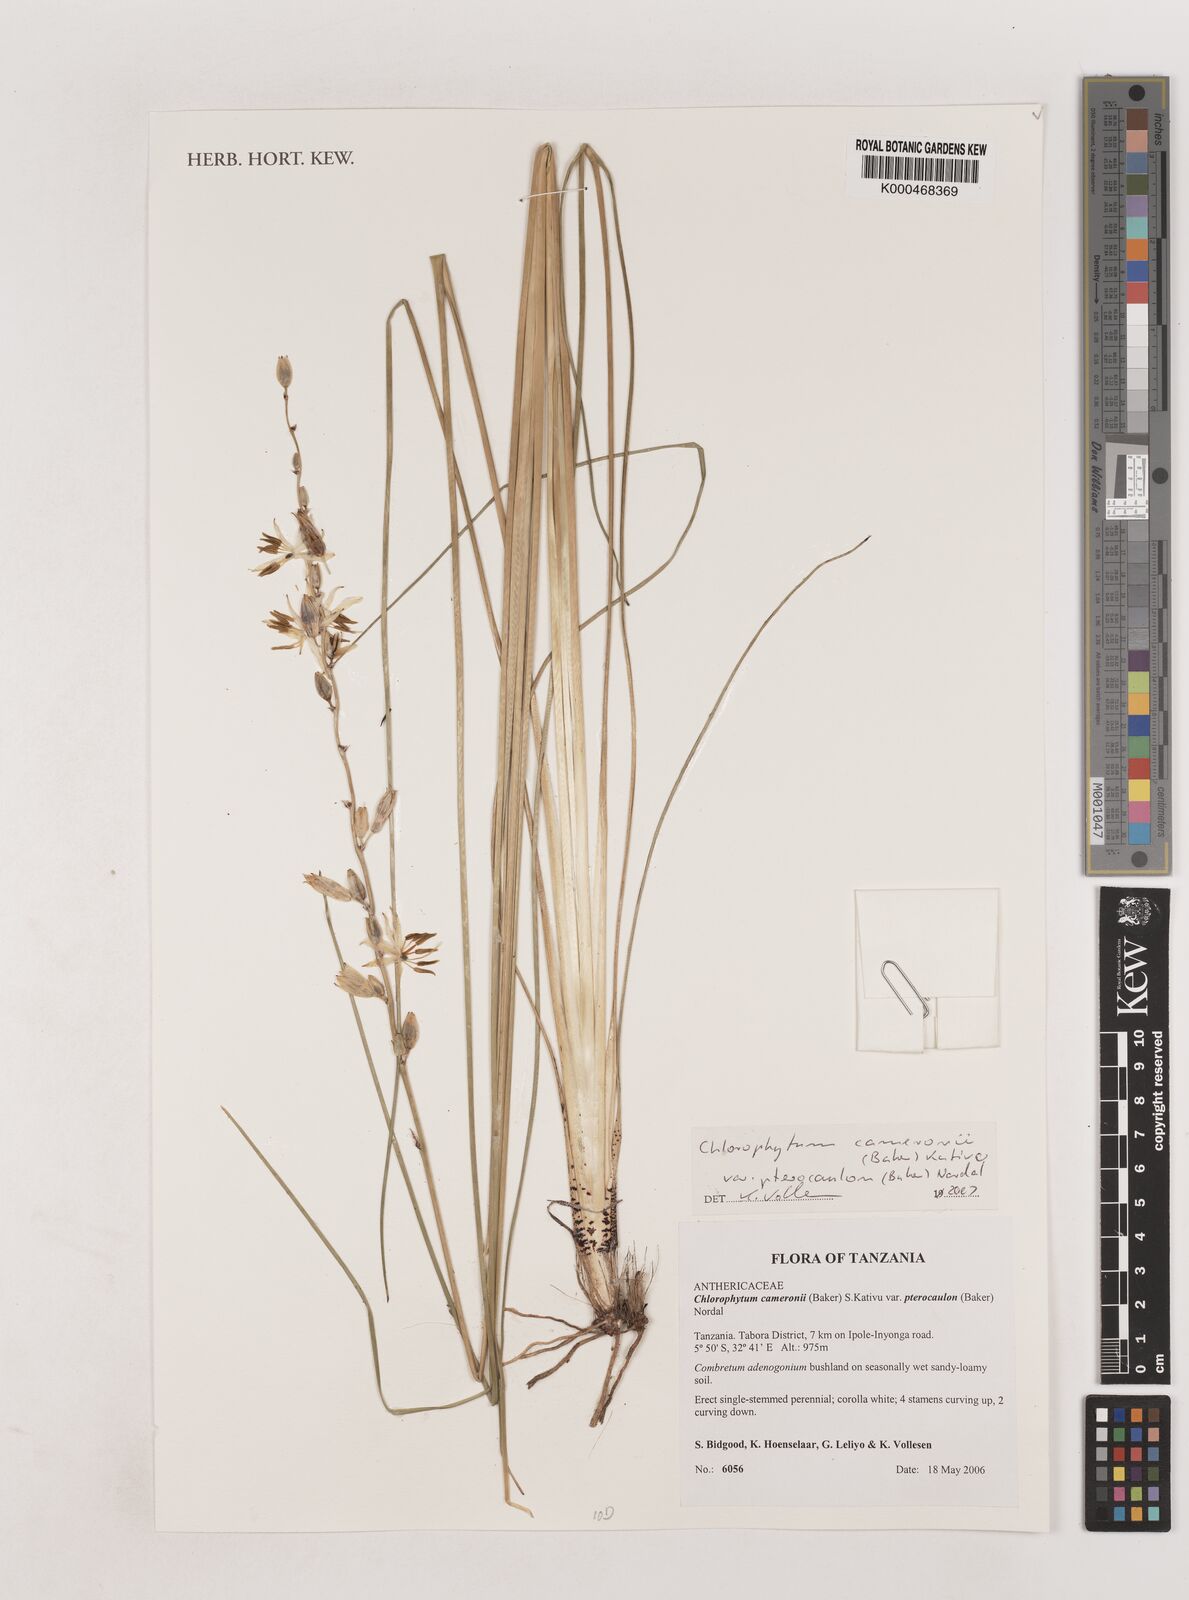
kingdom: Plantae
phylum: Tracheophyta
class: Liliopsida
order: Asparagales
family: Asparagaceae
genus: Chlorophytum
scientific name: Chlorophytum cameronii
